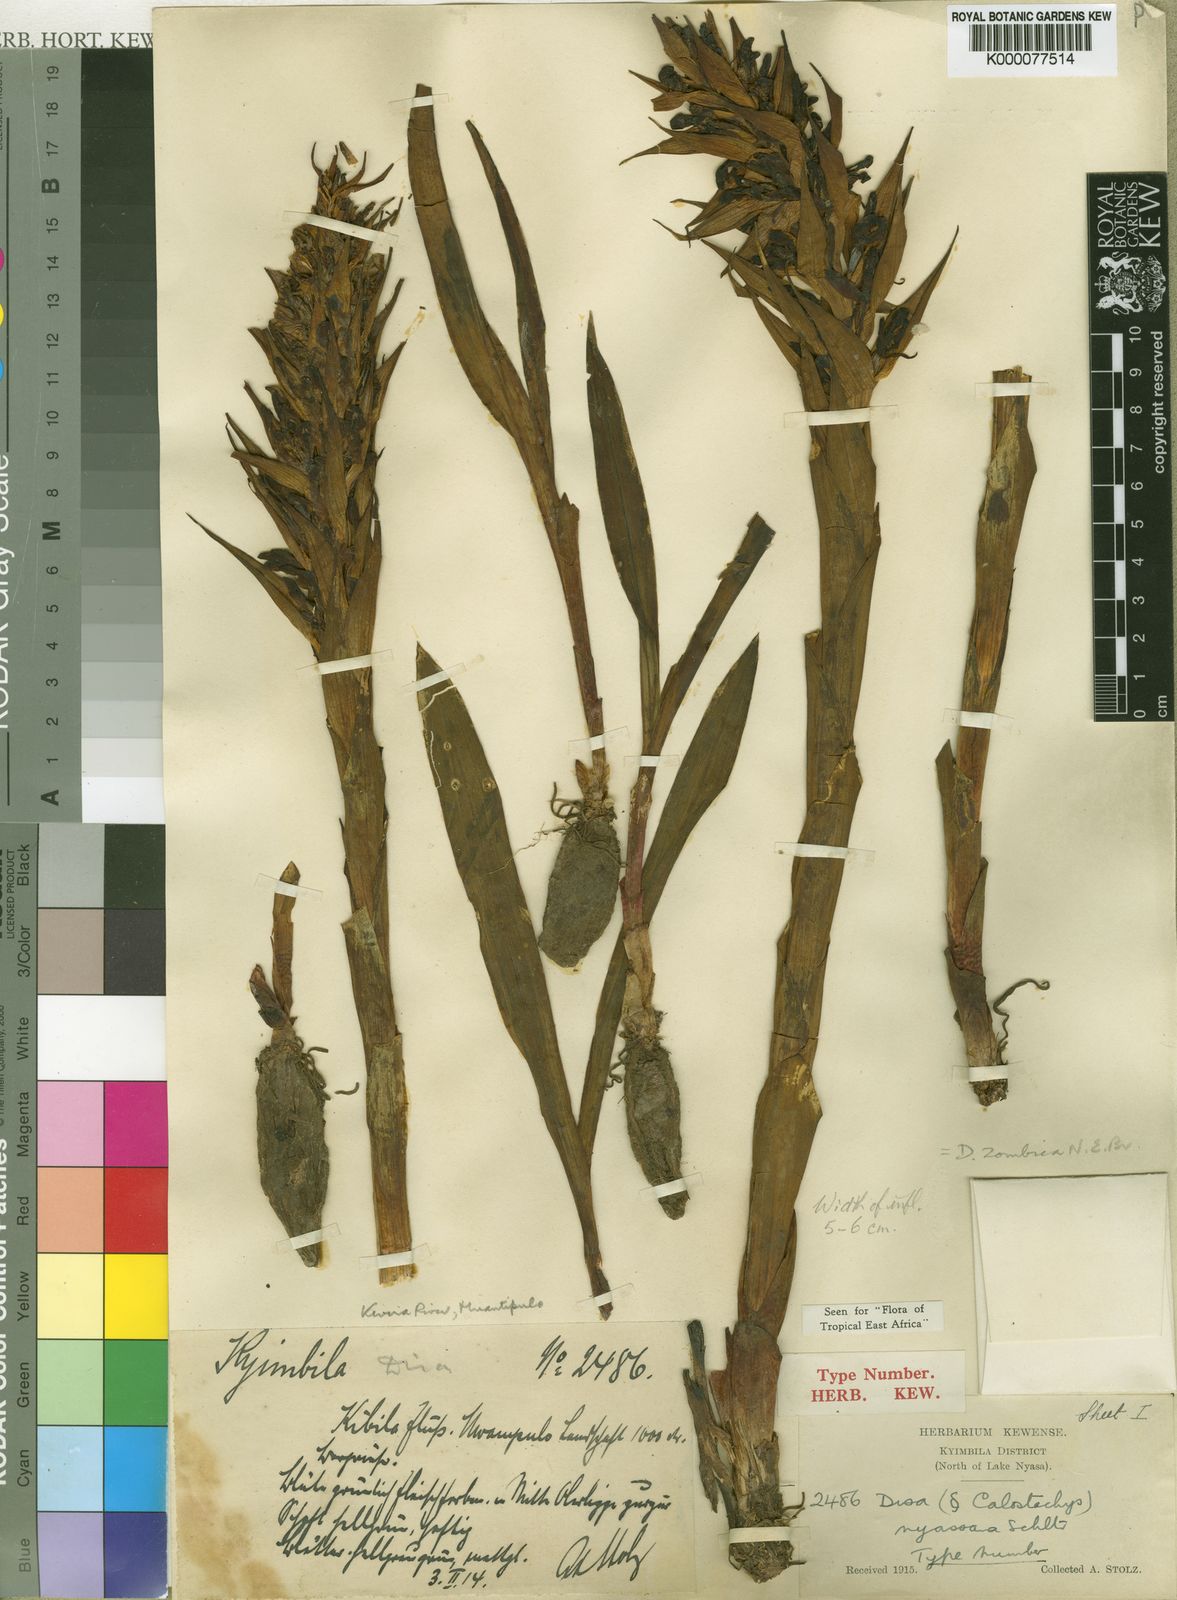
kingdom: Plantae
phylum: Tracheophyta
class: Liliopsida
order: Asparagales
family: Orchidaceae
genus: Disa
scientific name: Disa zombica
